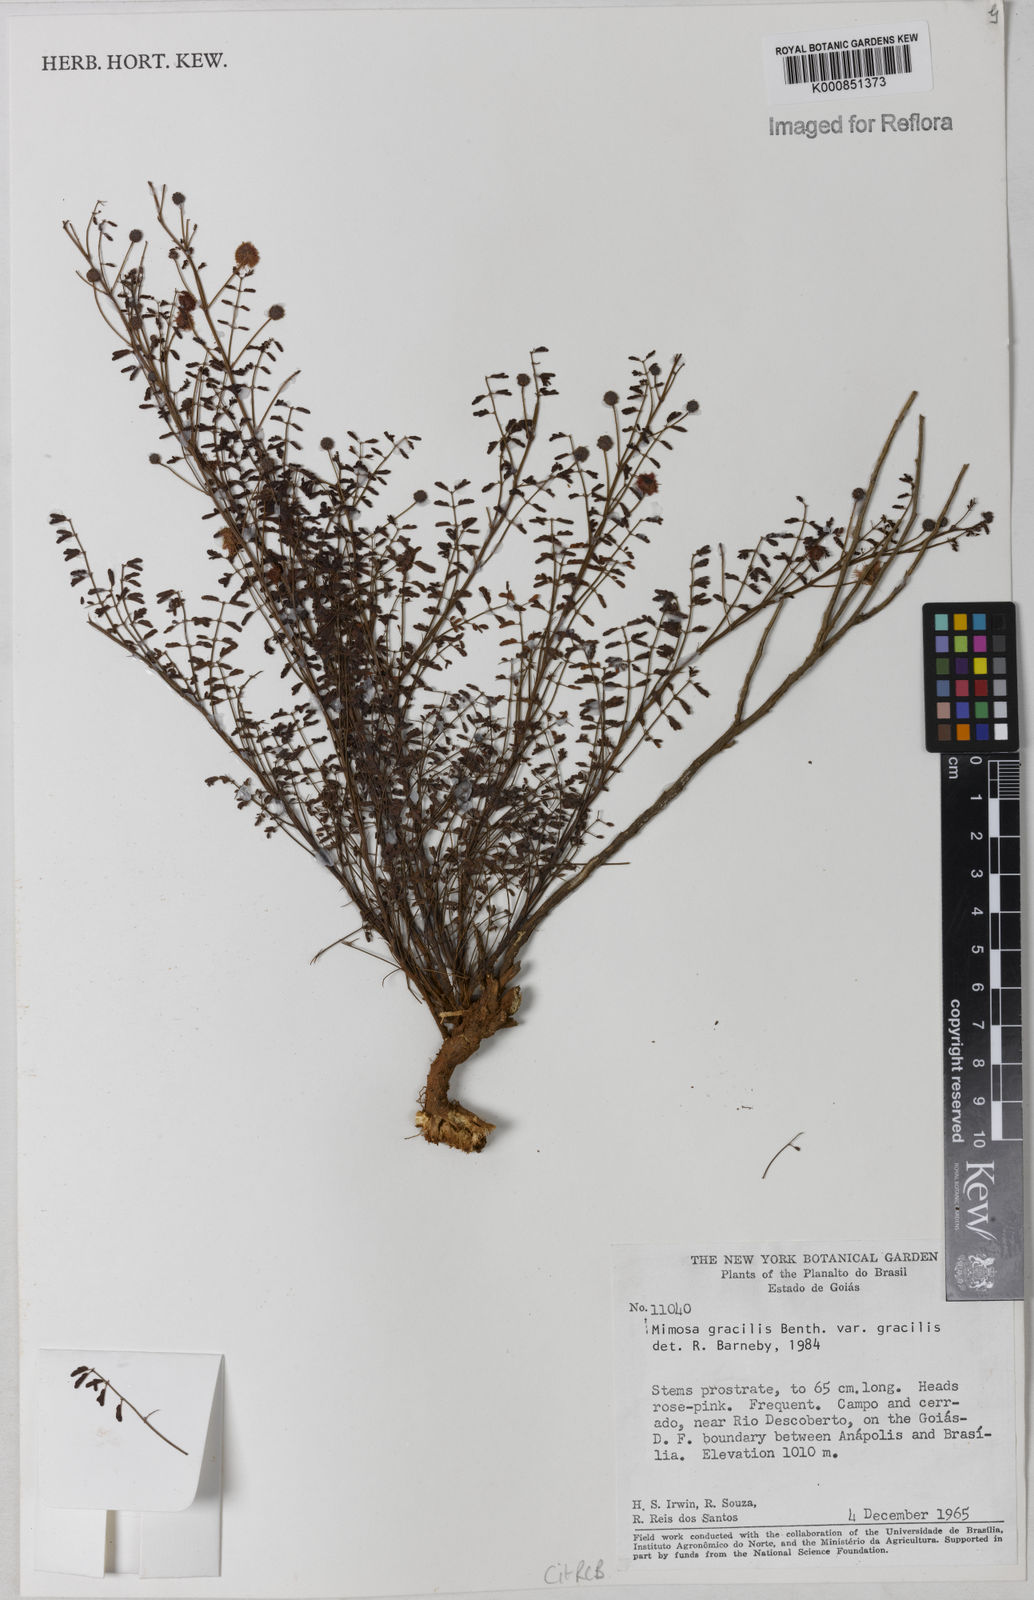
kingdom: Plantae
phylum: Tracheophyta
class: Magnoliopsida
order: Fabales
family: Fabaceae
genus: Mimosa
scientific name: Mimosa gracilis
